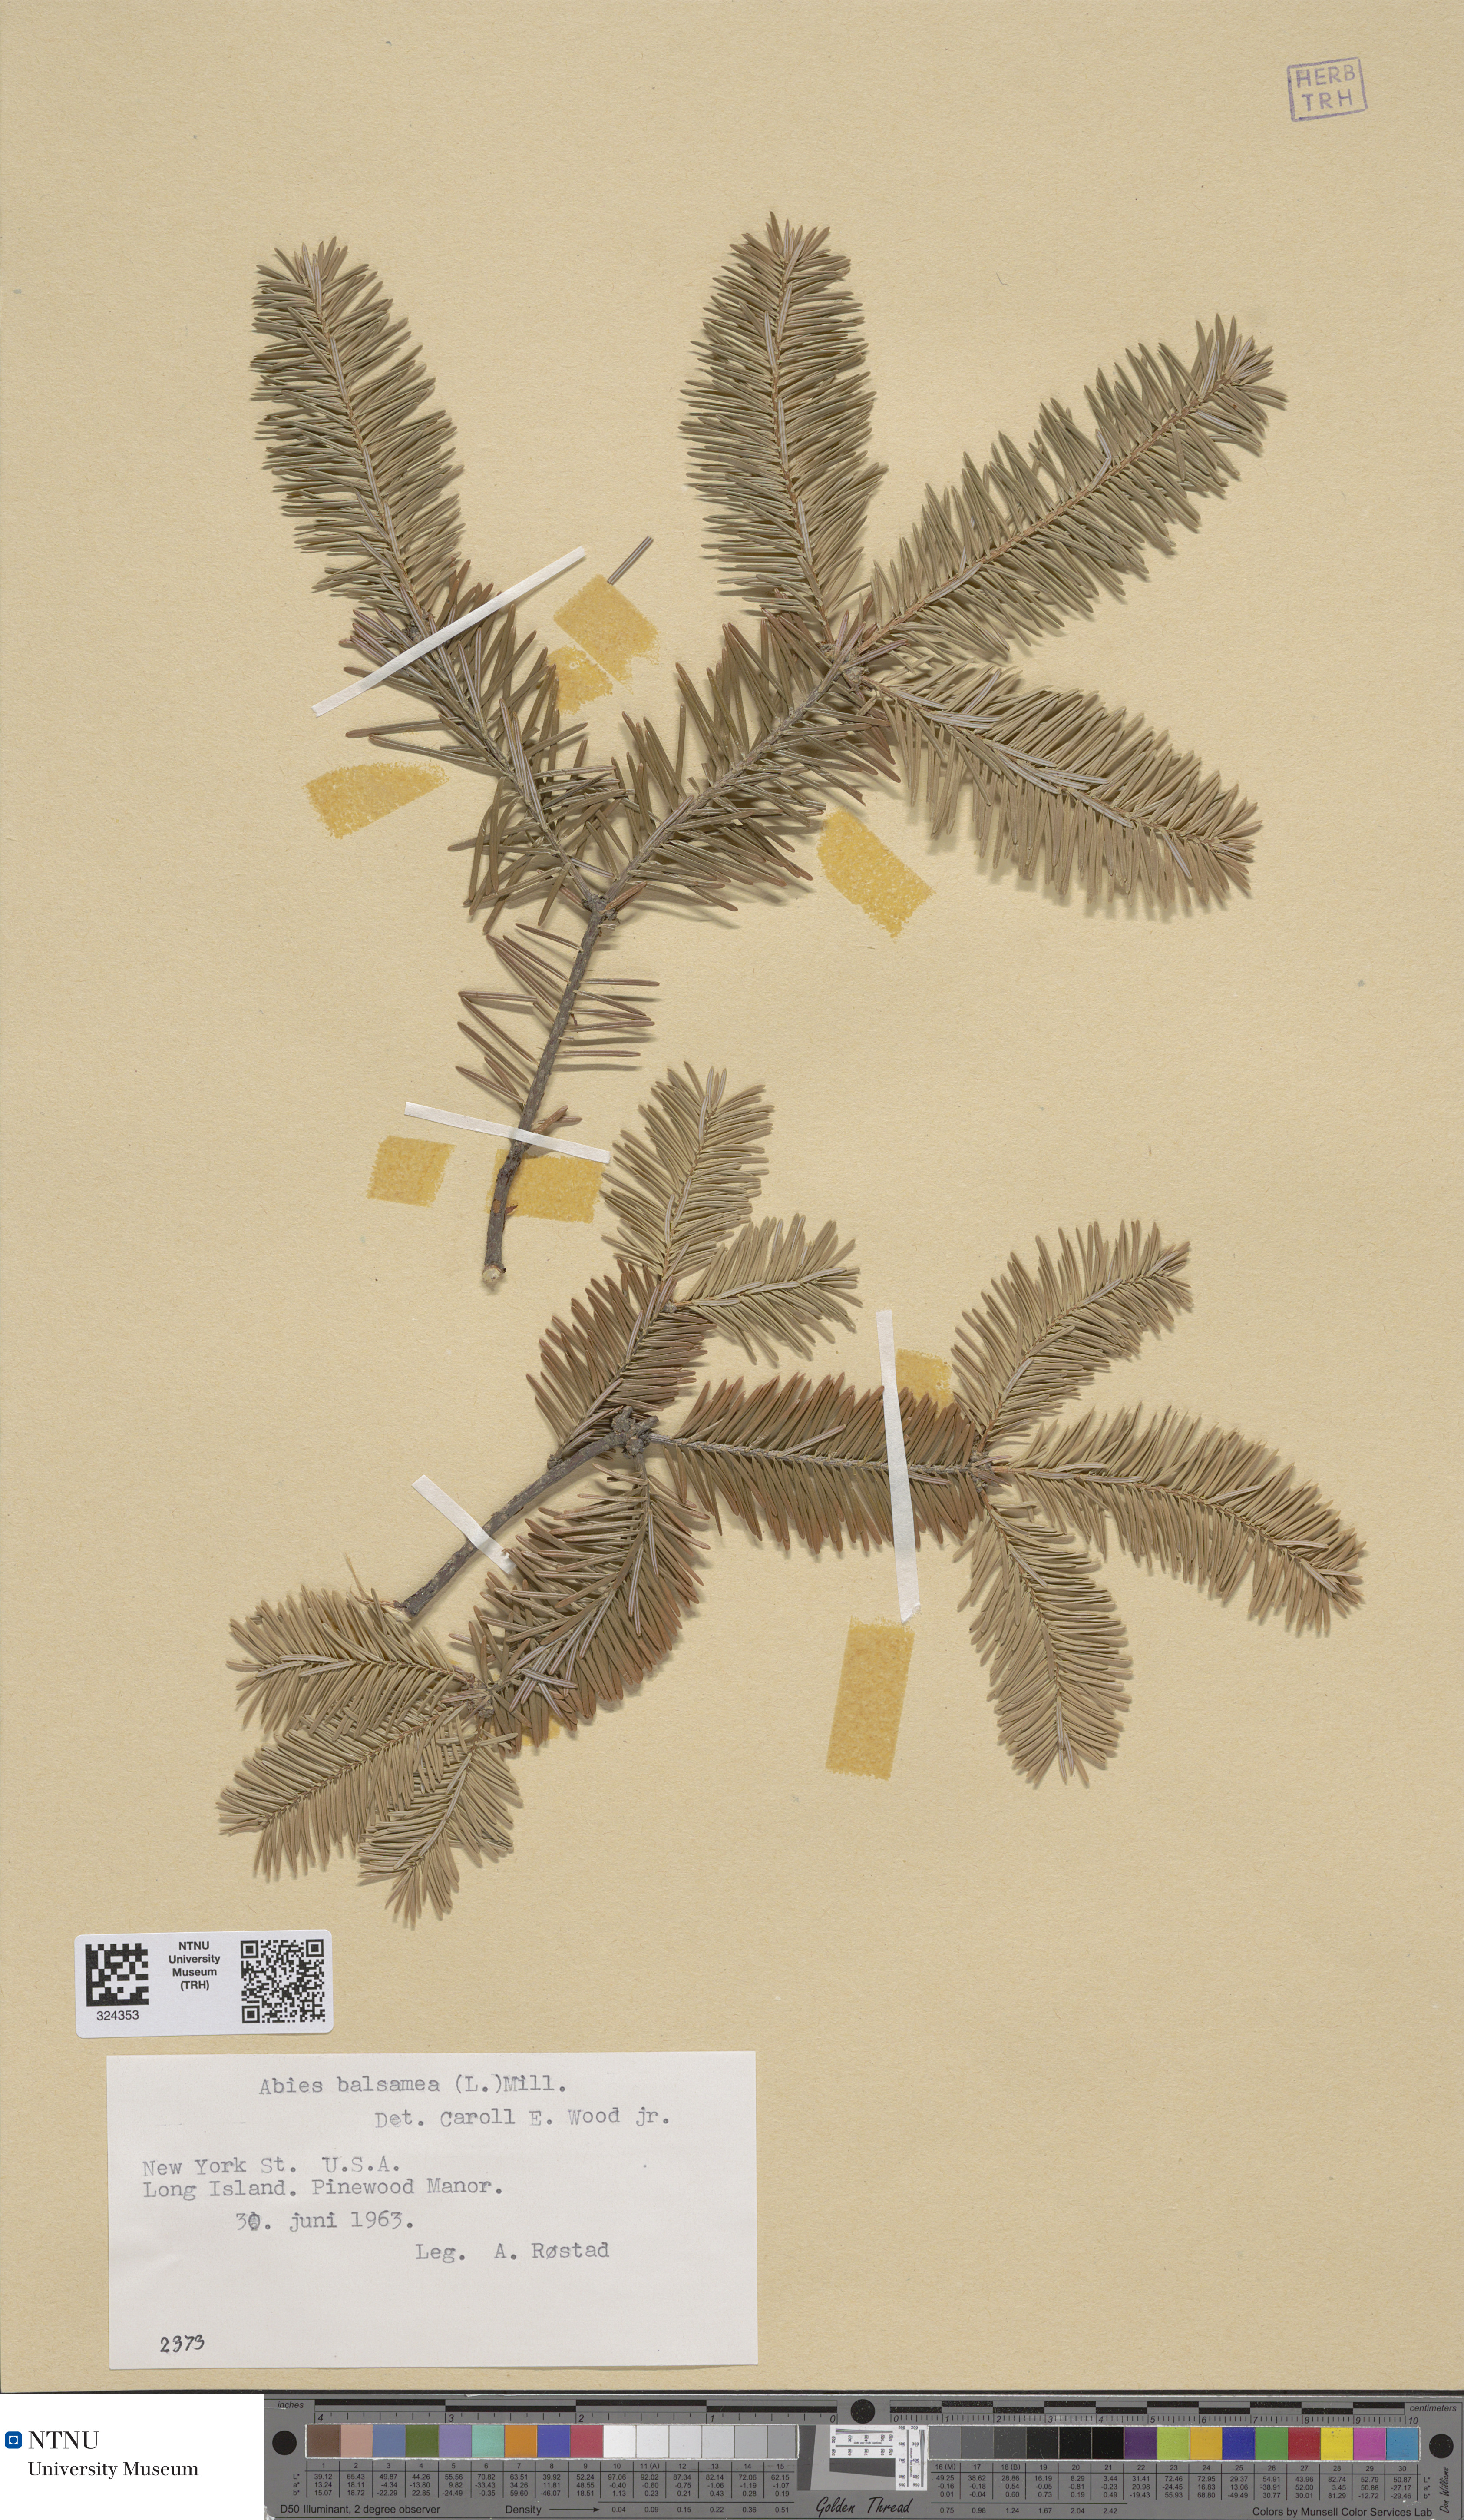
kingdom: Plantae
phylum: Tracheophyta
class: Pinopsida
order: Pinales
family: Pinaceae
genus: Abies
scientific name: Abies balsamea
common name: Balsam fir
